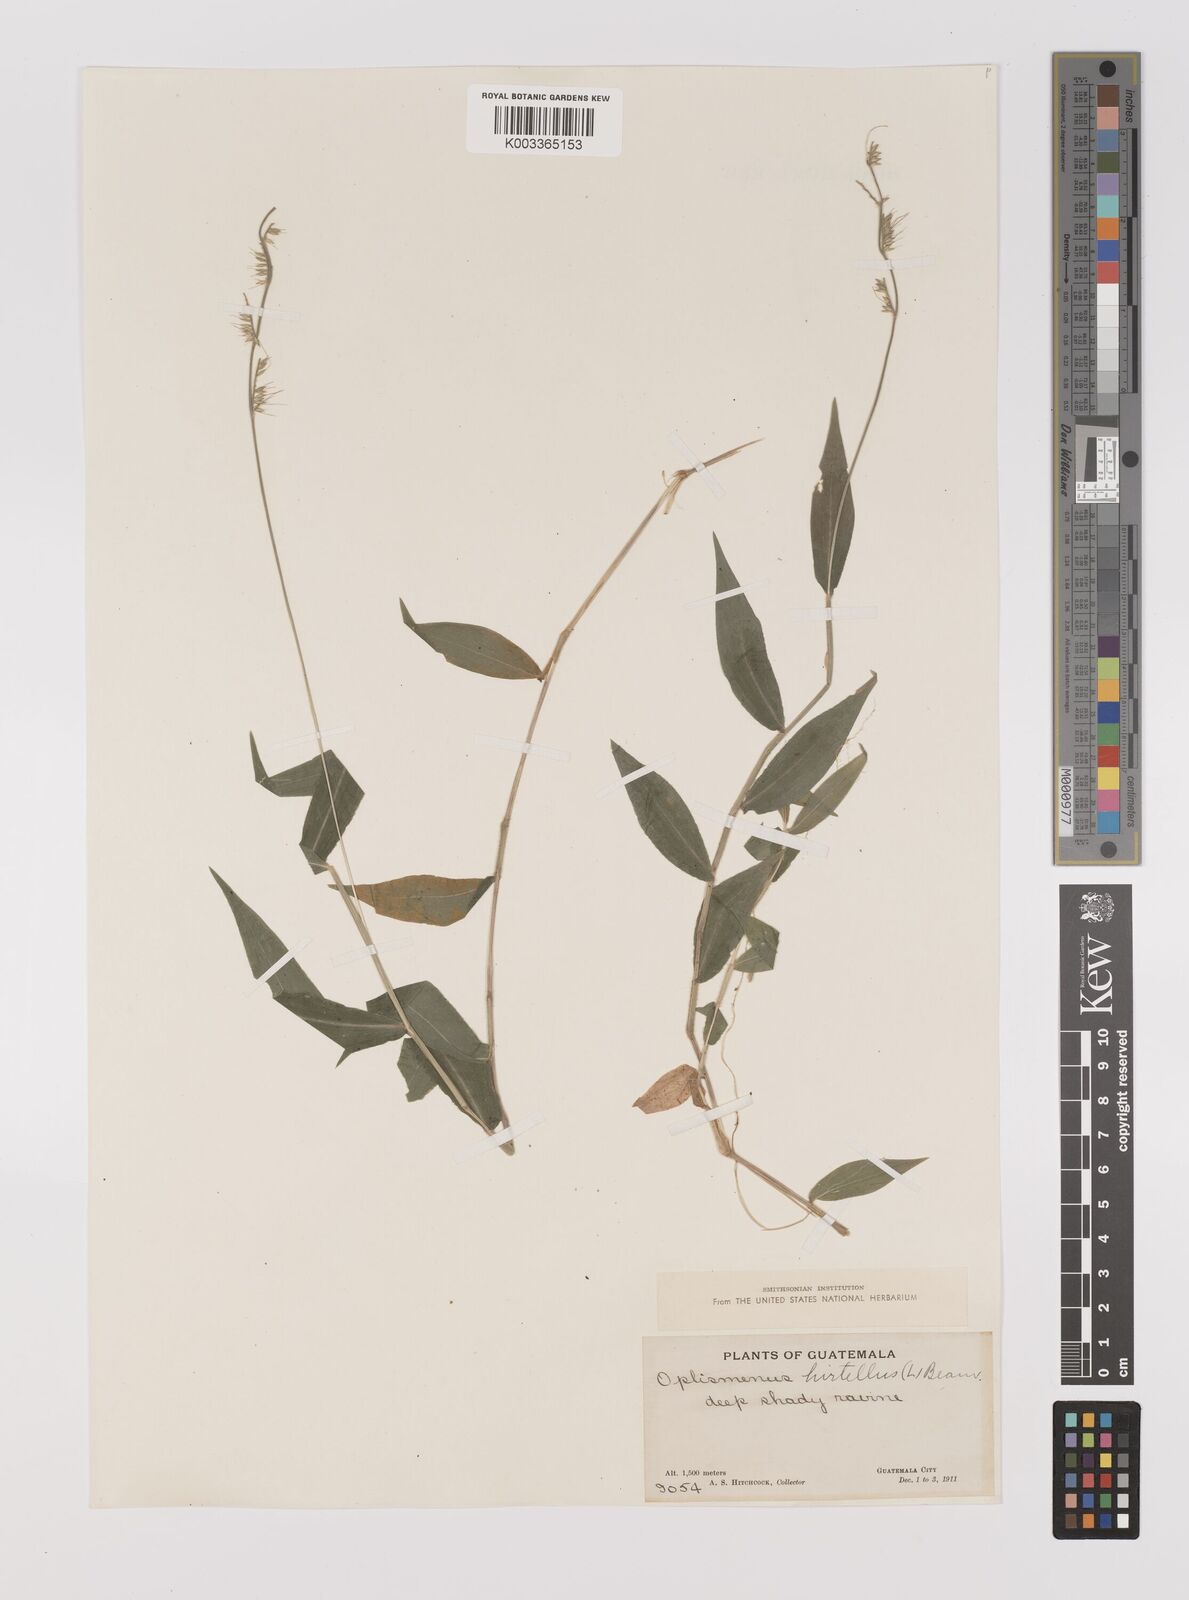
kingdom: Plantae
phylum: Tracheophyta
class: Liliopsida
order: Poales
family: Poaceae
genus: Oplismenus
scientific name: Oplismenus hirtellus
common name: Basketgrass
